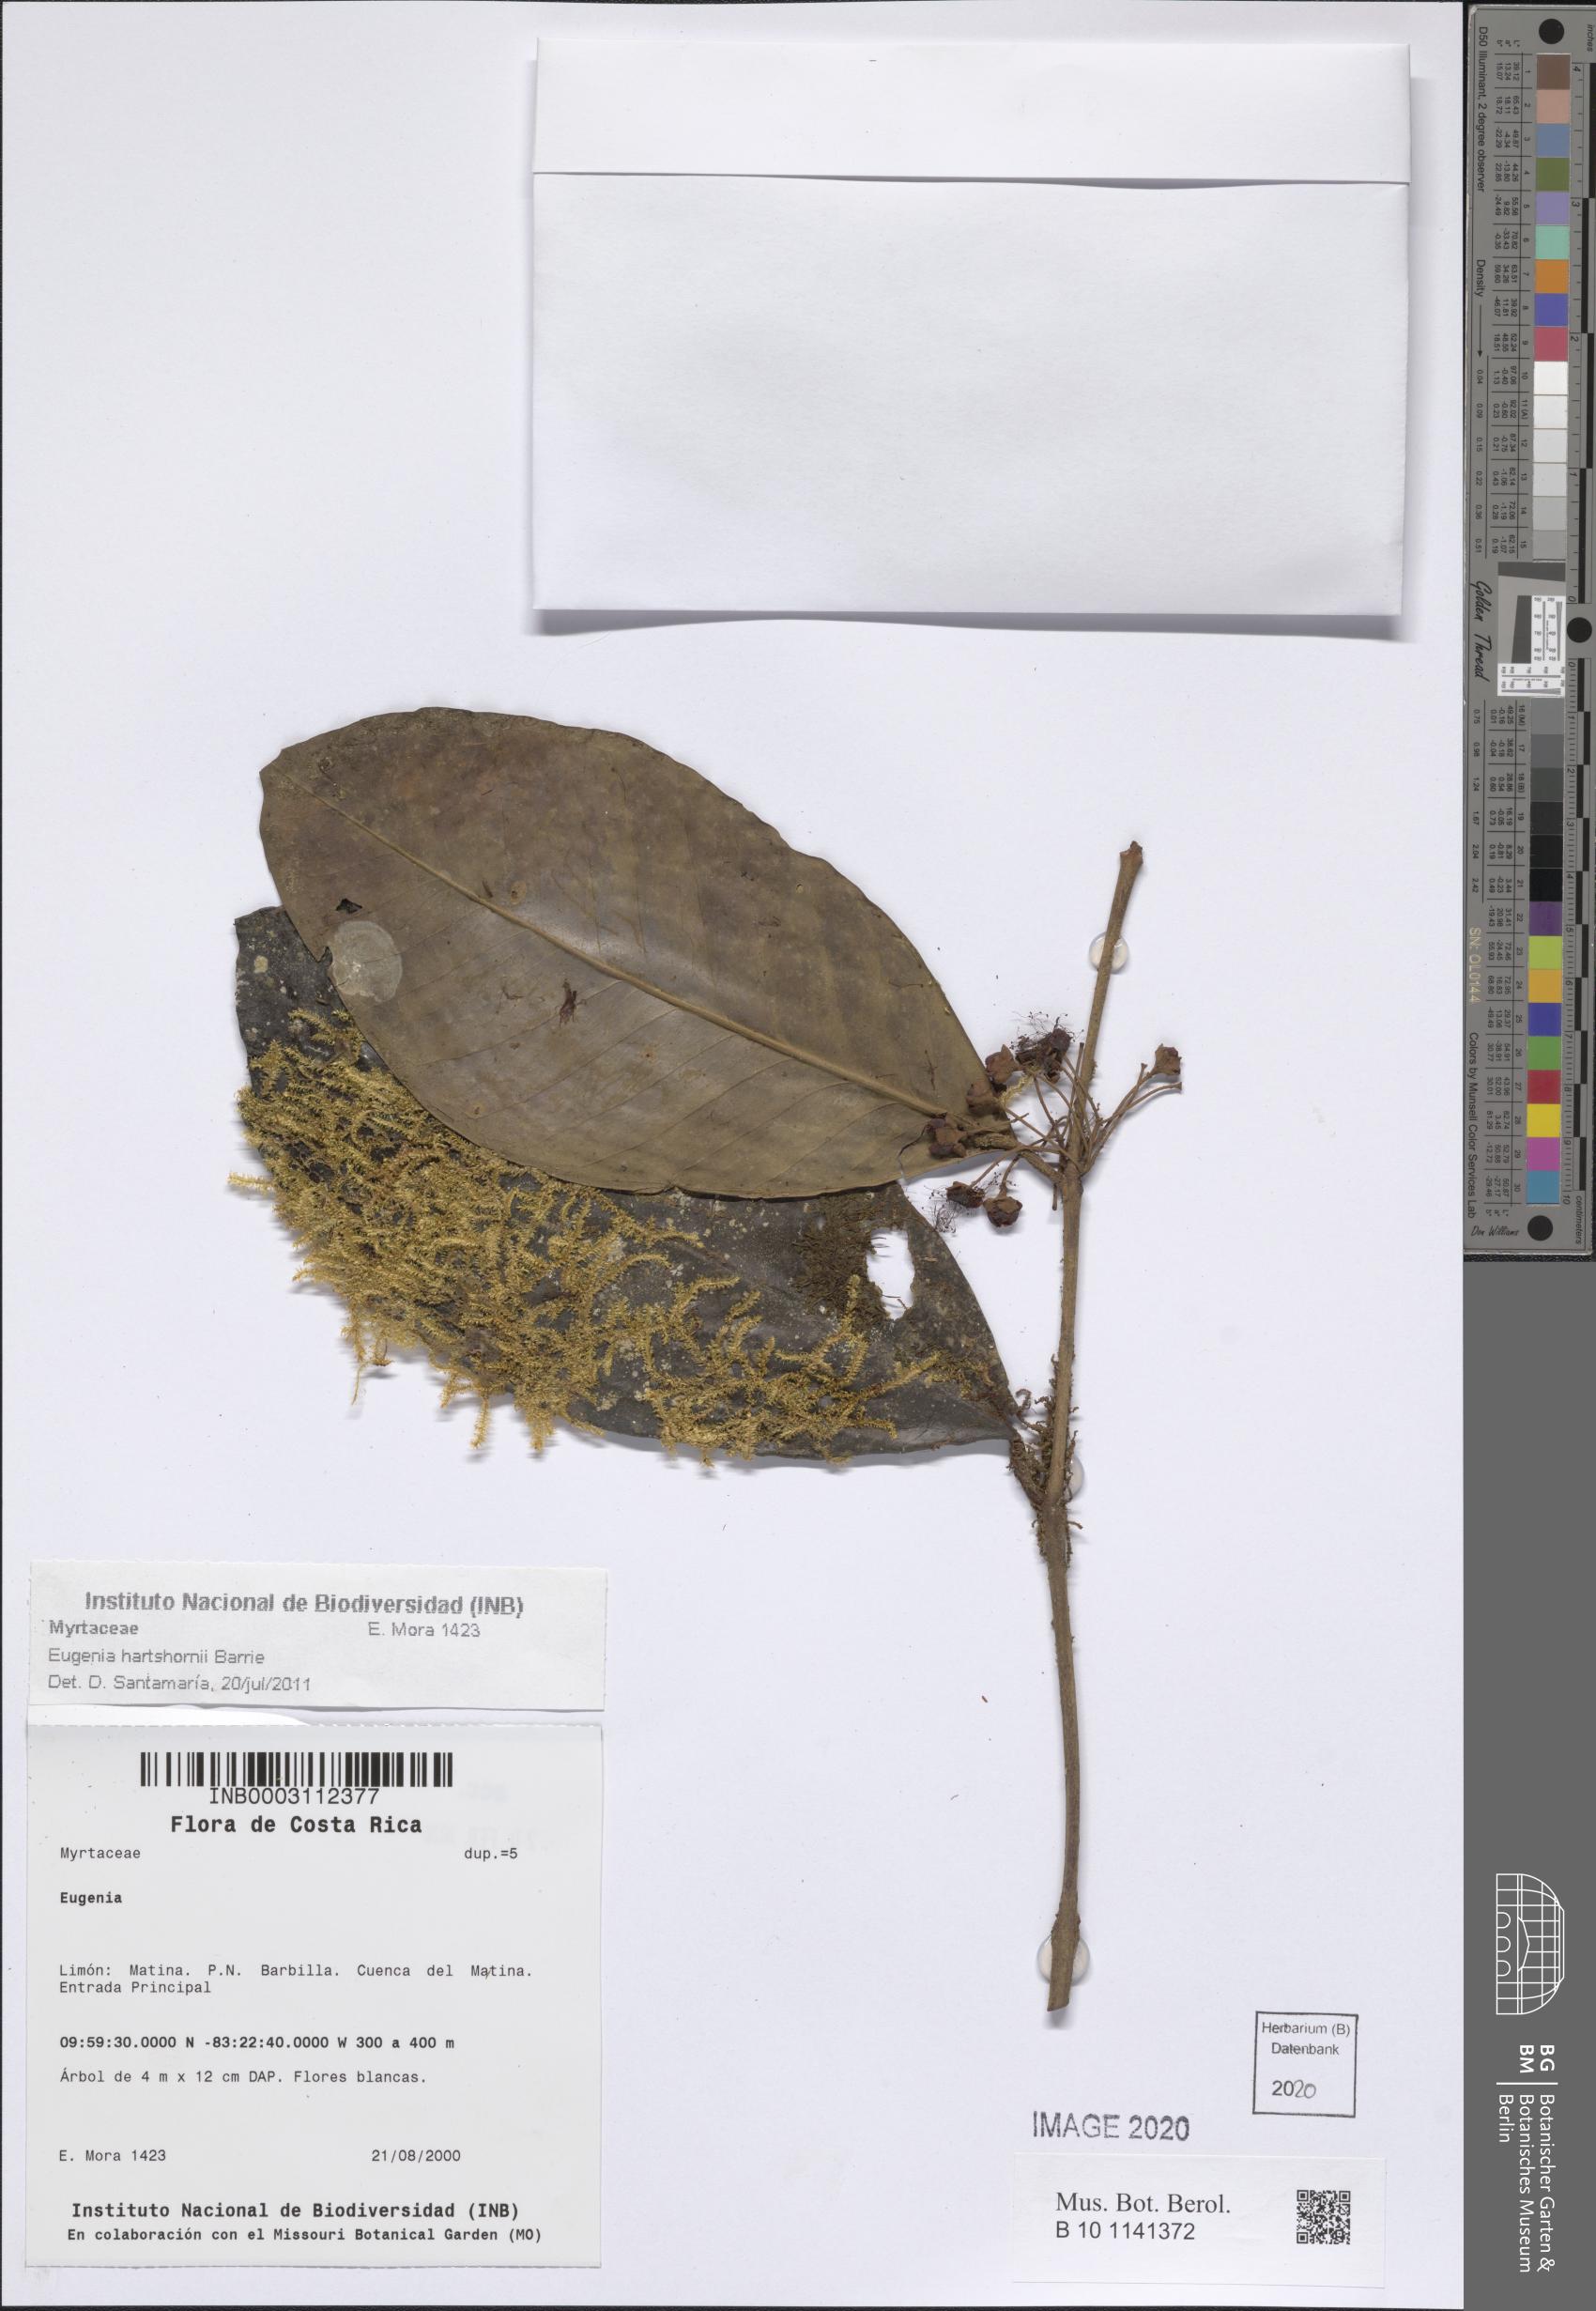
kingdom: Plantae
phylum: Tracheophyta
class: Magnoliopsida
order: Myrtales
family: Myrtaceae
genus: Eugenia
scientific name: Eugenia hartshornii
